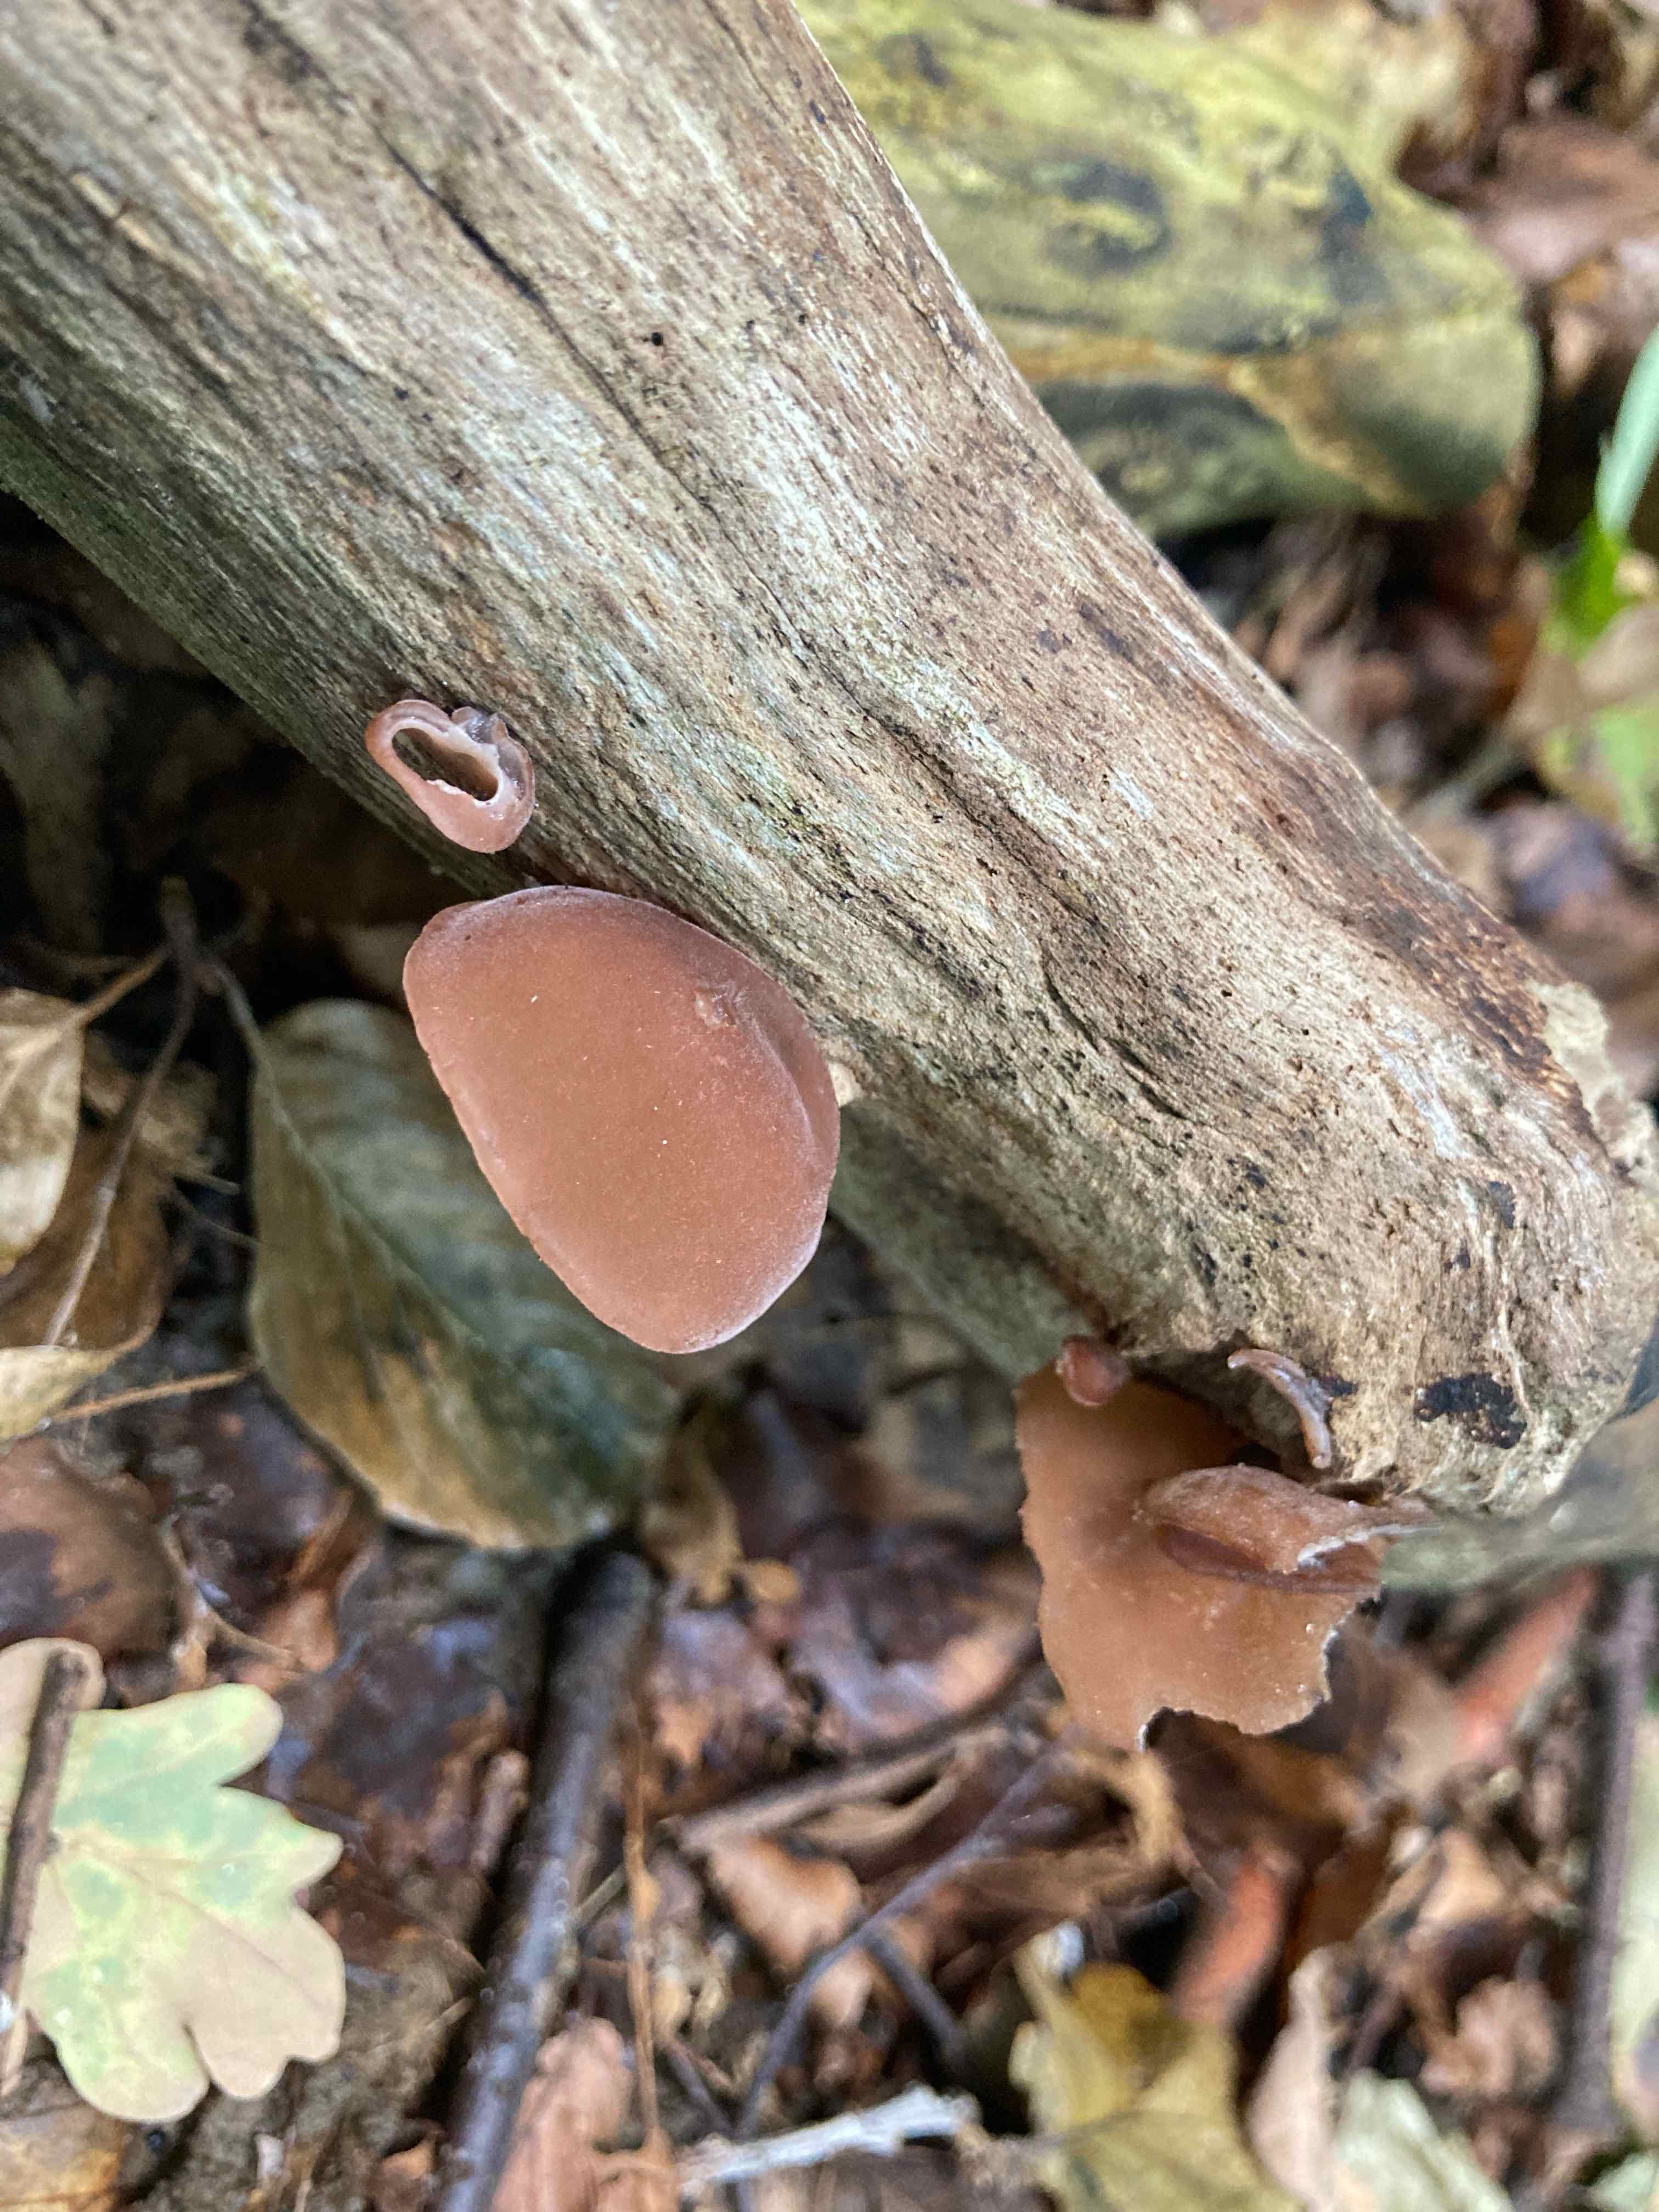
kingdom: Fungi
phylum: Basidiomycota
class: Agaricomycetes
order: Auriculariales
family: Auriculariaceae
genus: Auricularia
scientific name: Auricularia auricula-judae
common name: almindelig judasøre
